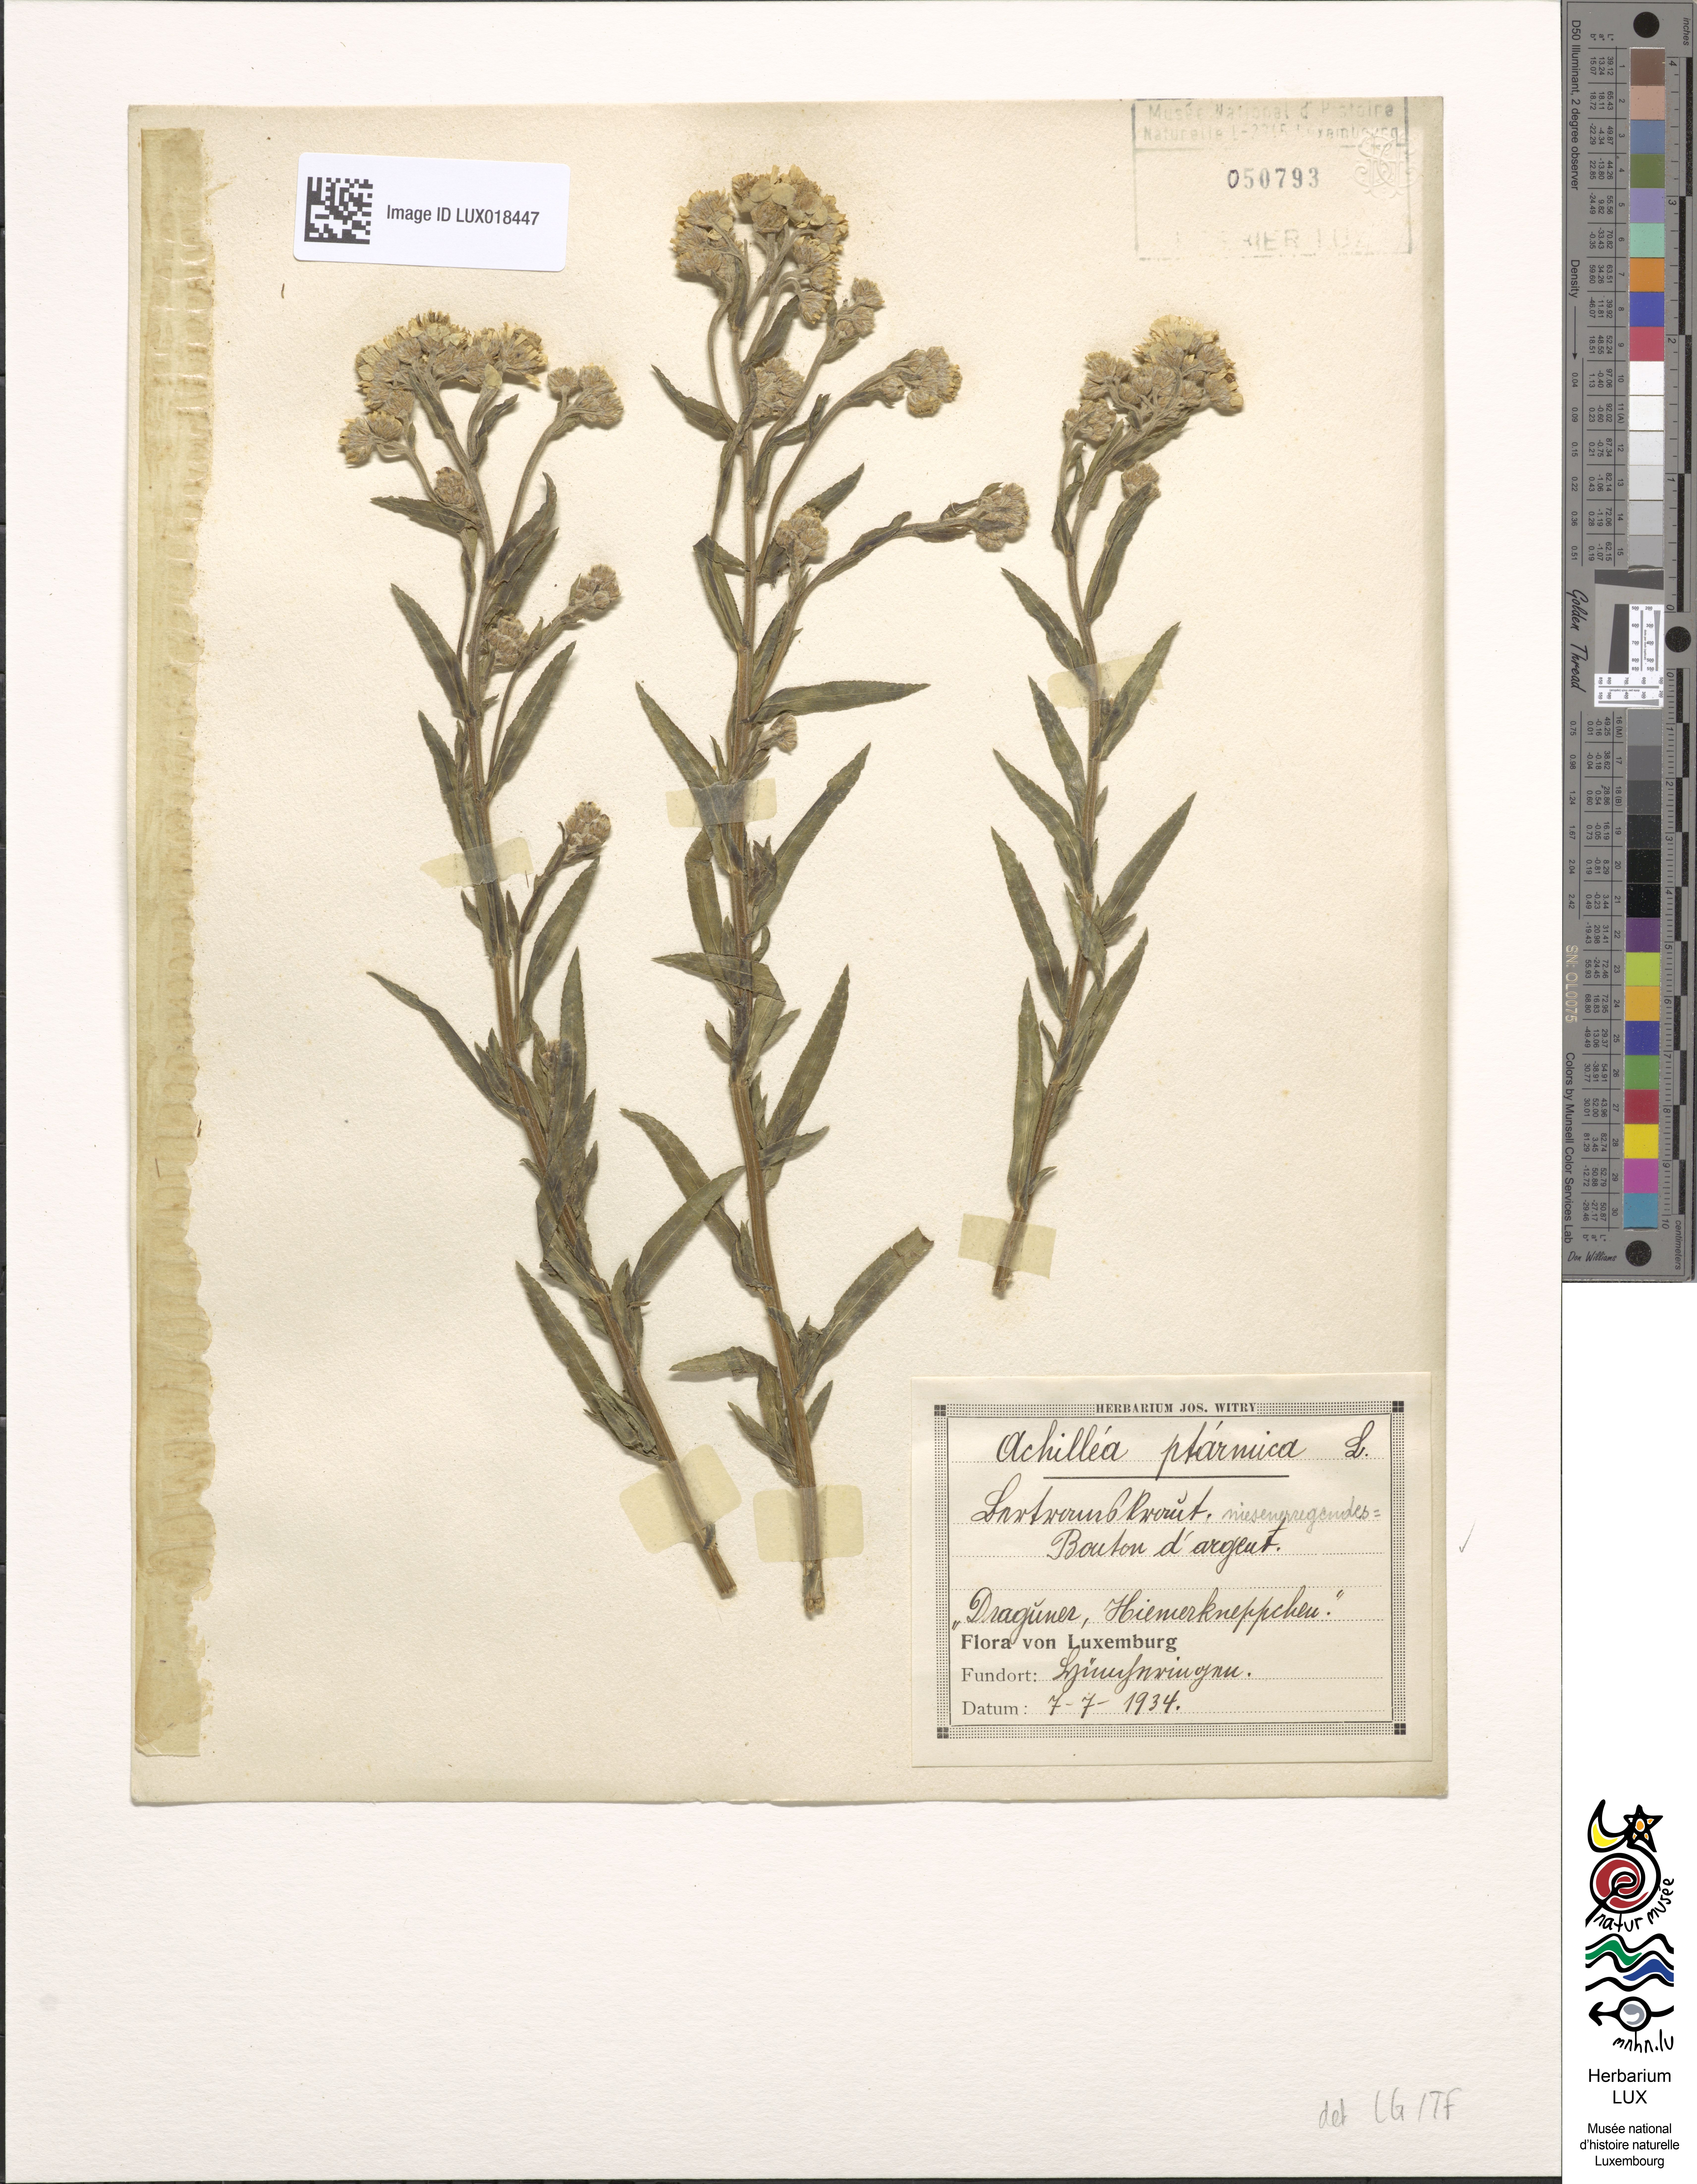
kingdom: Plantae
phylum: Tracheophyta
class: Magnoliopsida
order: Asterales
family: Asteraceae
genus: Achillea
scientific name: Achillea ptarmica
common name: Sneezeweed
